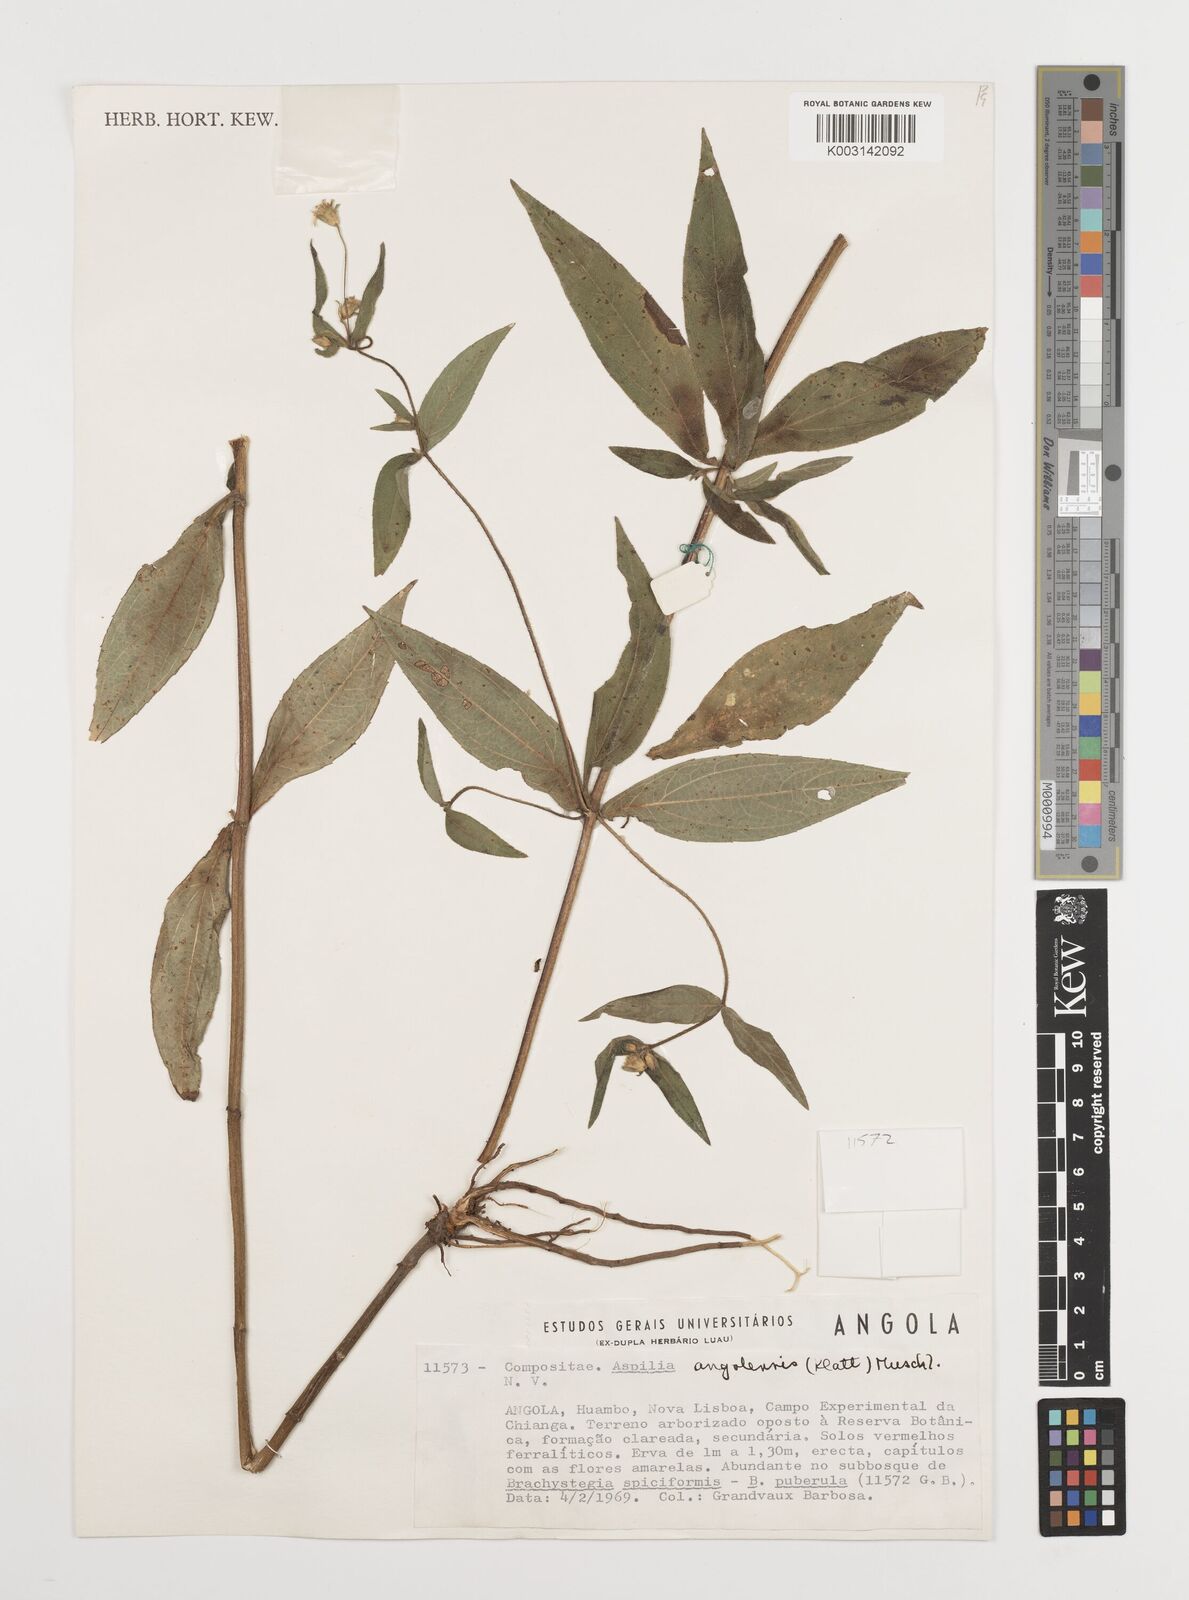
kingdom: Plantae
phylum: Tracheophyta
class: Magnoliopsida
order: Asterales
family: Asteraceae
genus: Aspilia
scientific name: Aspilia angolensis
